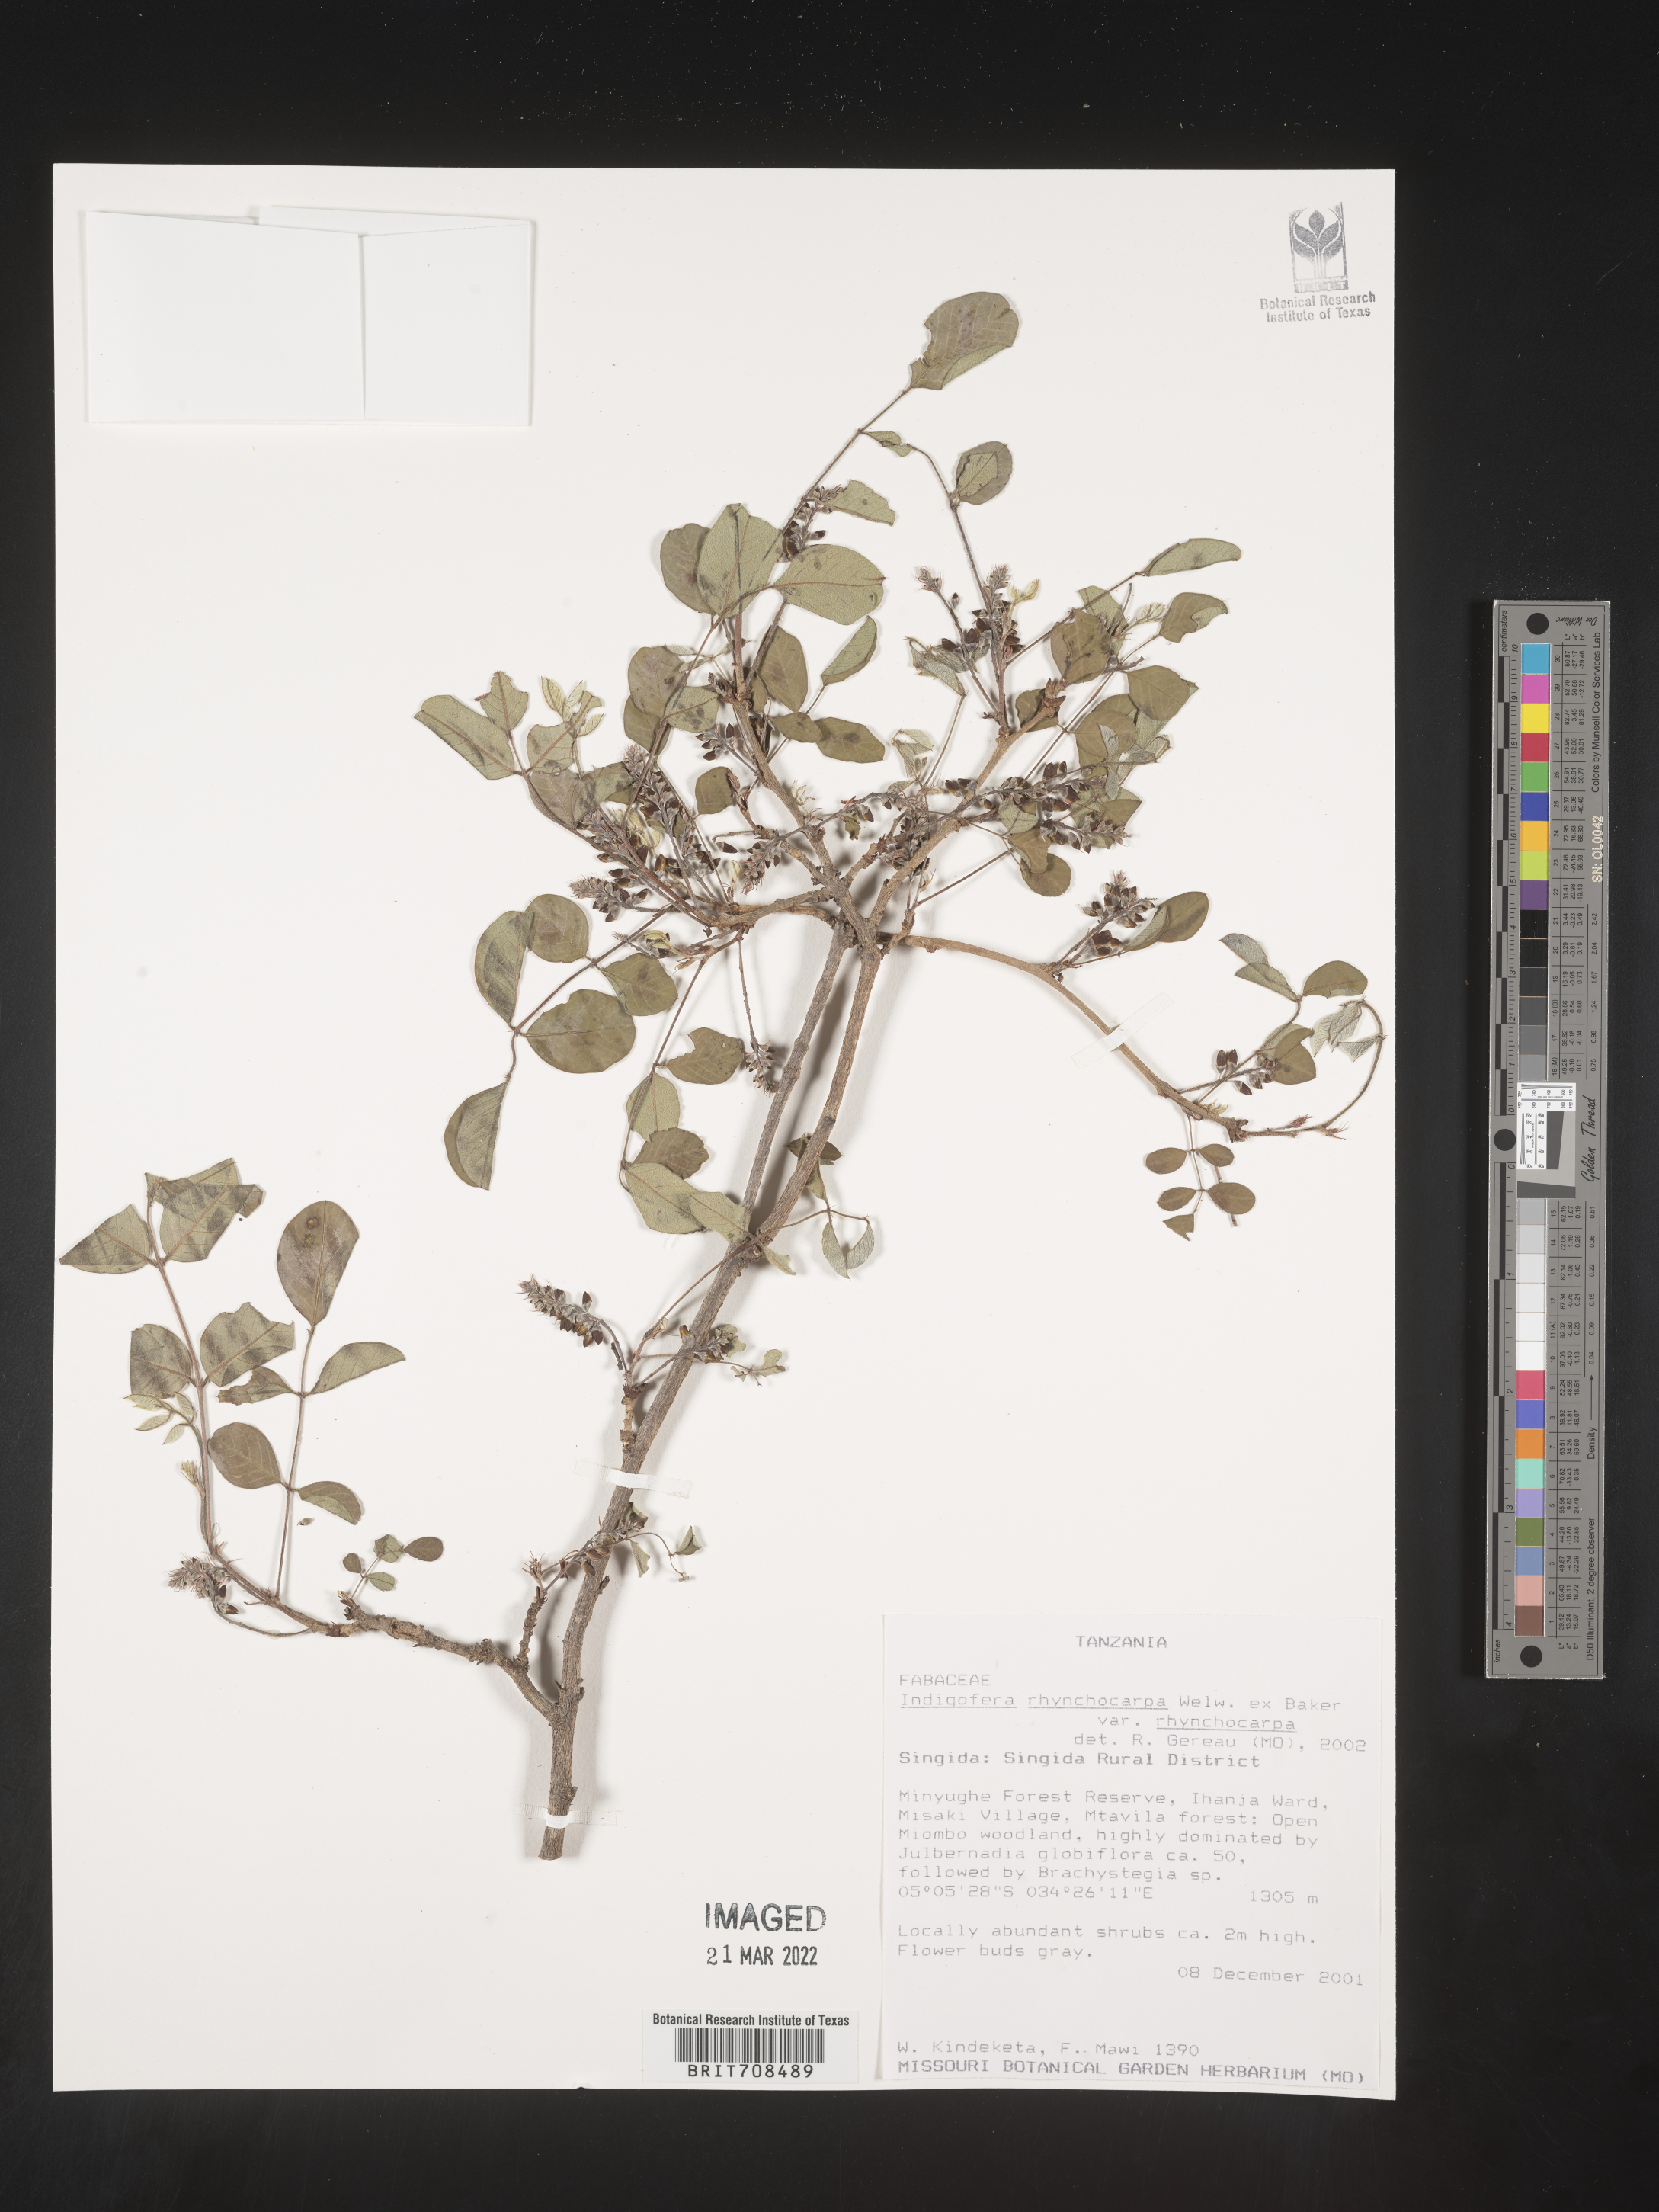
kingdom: Plantae
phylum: Tracheophyta
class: Magnoliopsida
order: Fabales
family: Fabaceae
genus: Indigofera
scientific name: Indigofera
